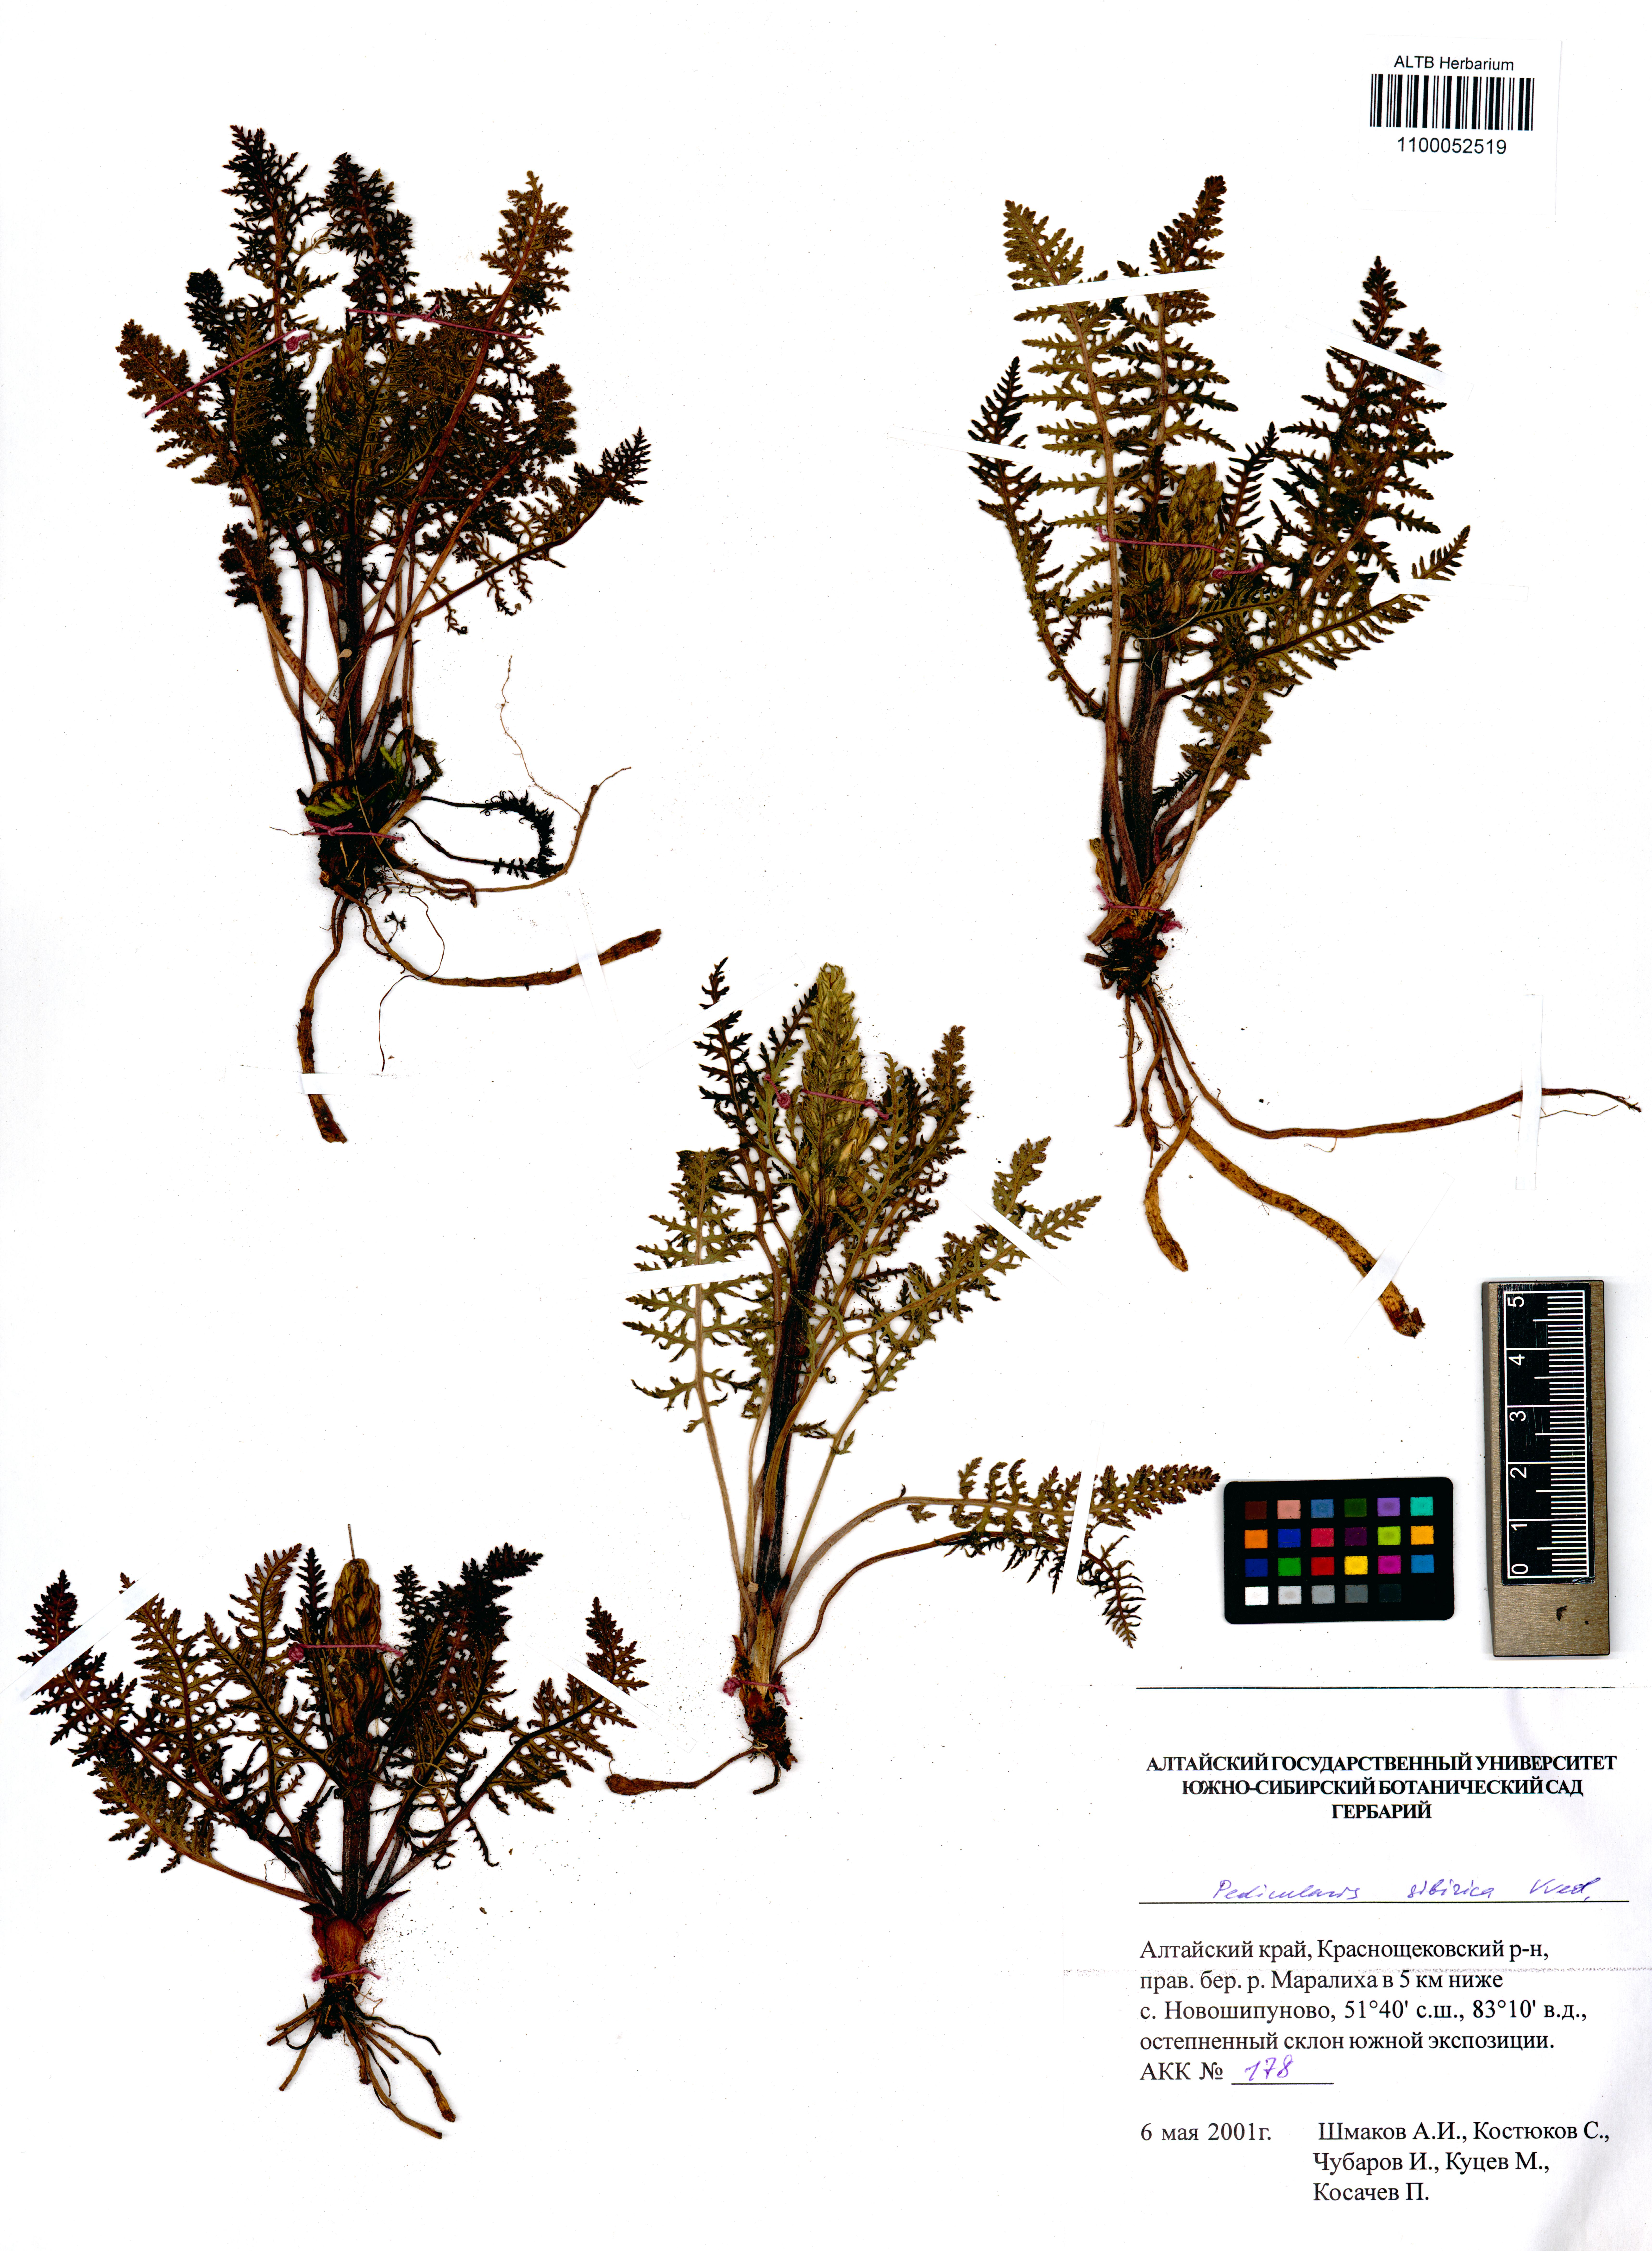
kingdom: Plantae
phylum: Tracheophyta
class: Magnoliopsida
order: Lamiales
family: Orobanchaceae
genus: Pedicularis
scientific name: Pedicularis sibirica
